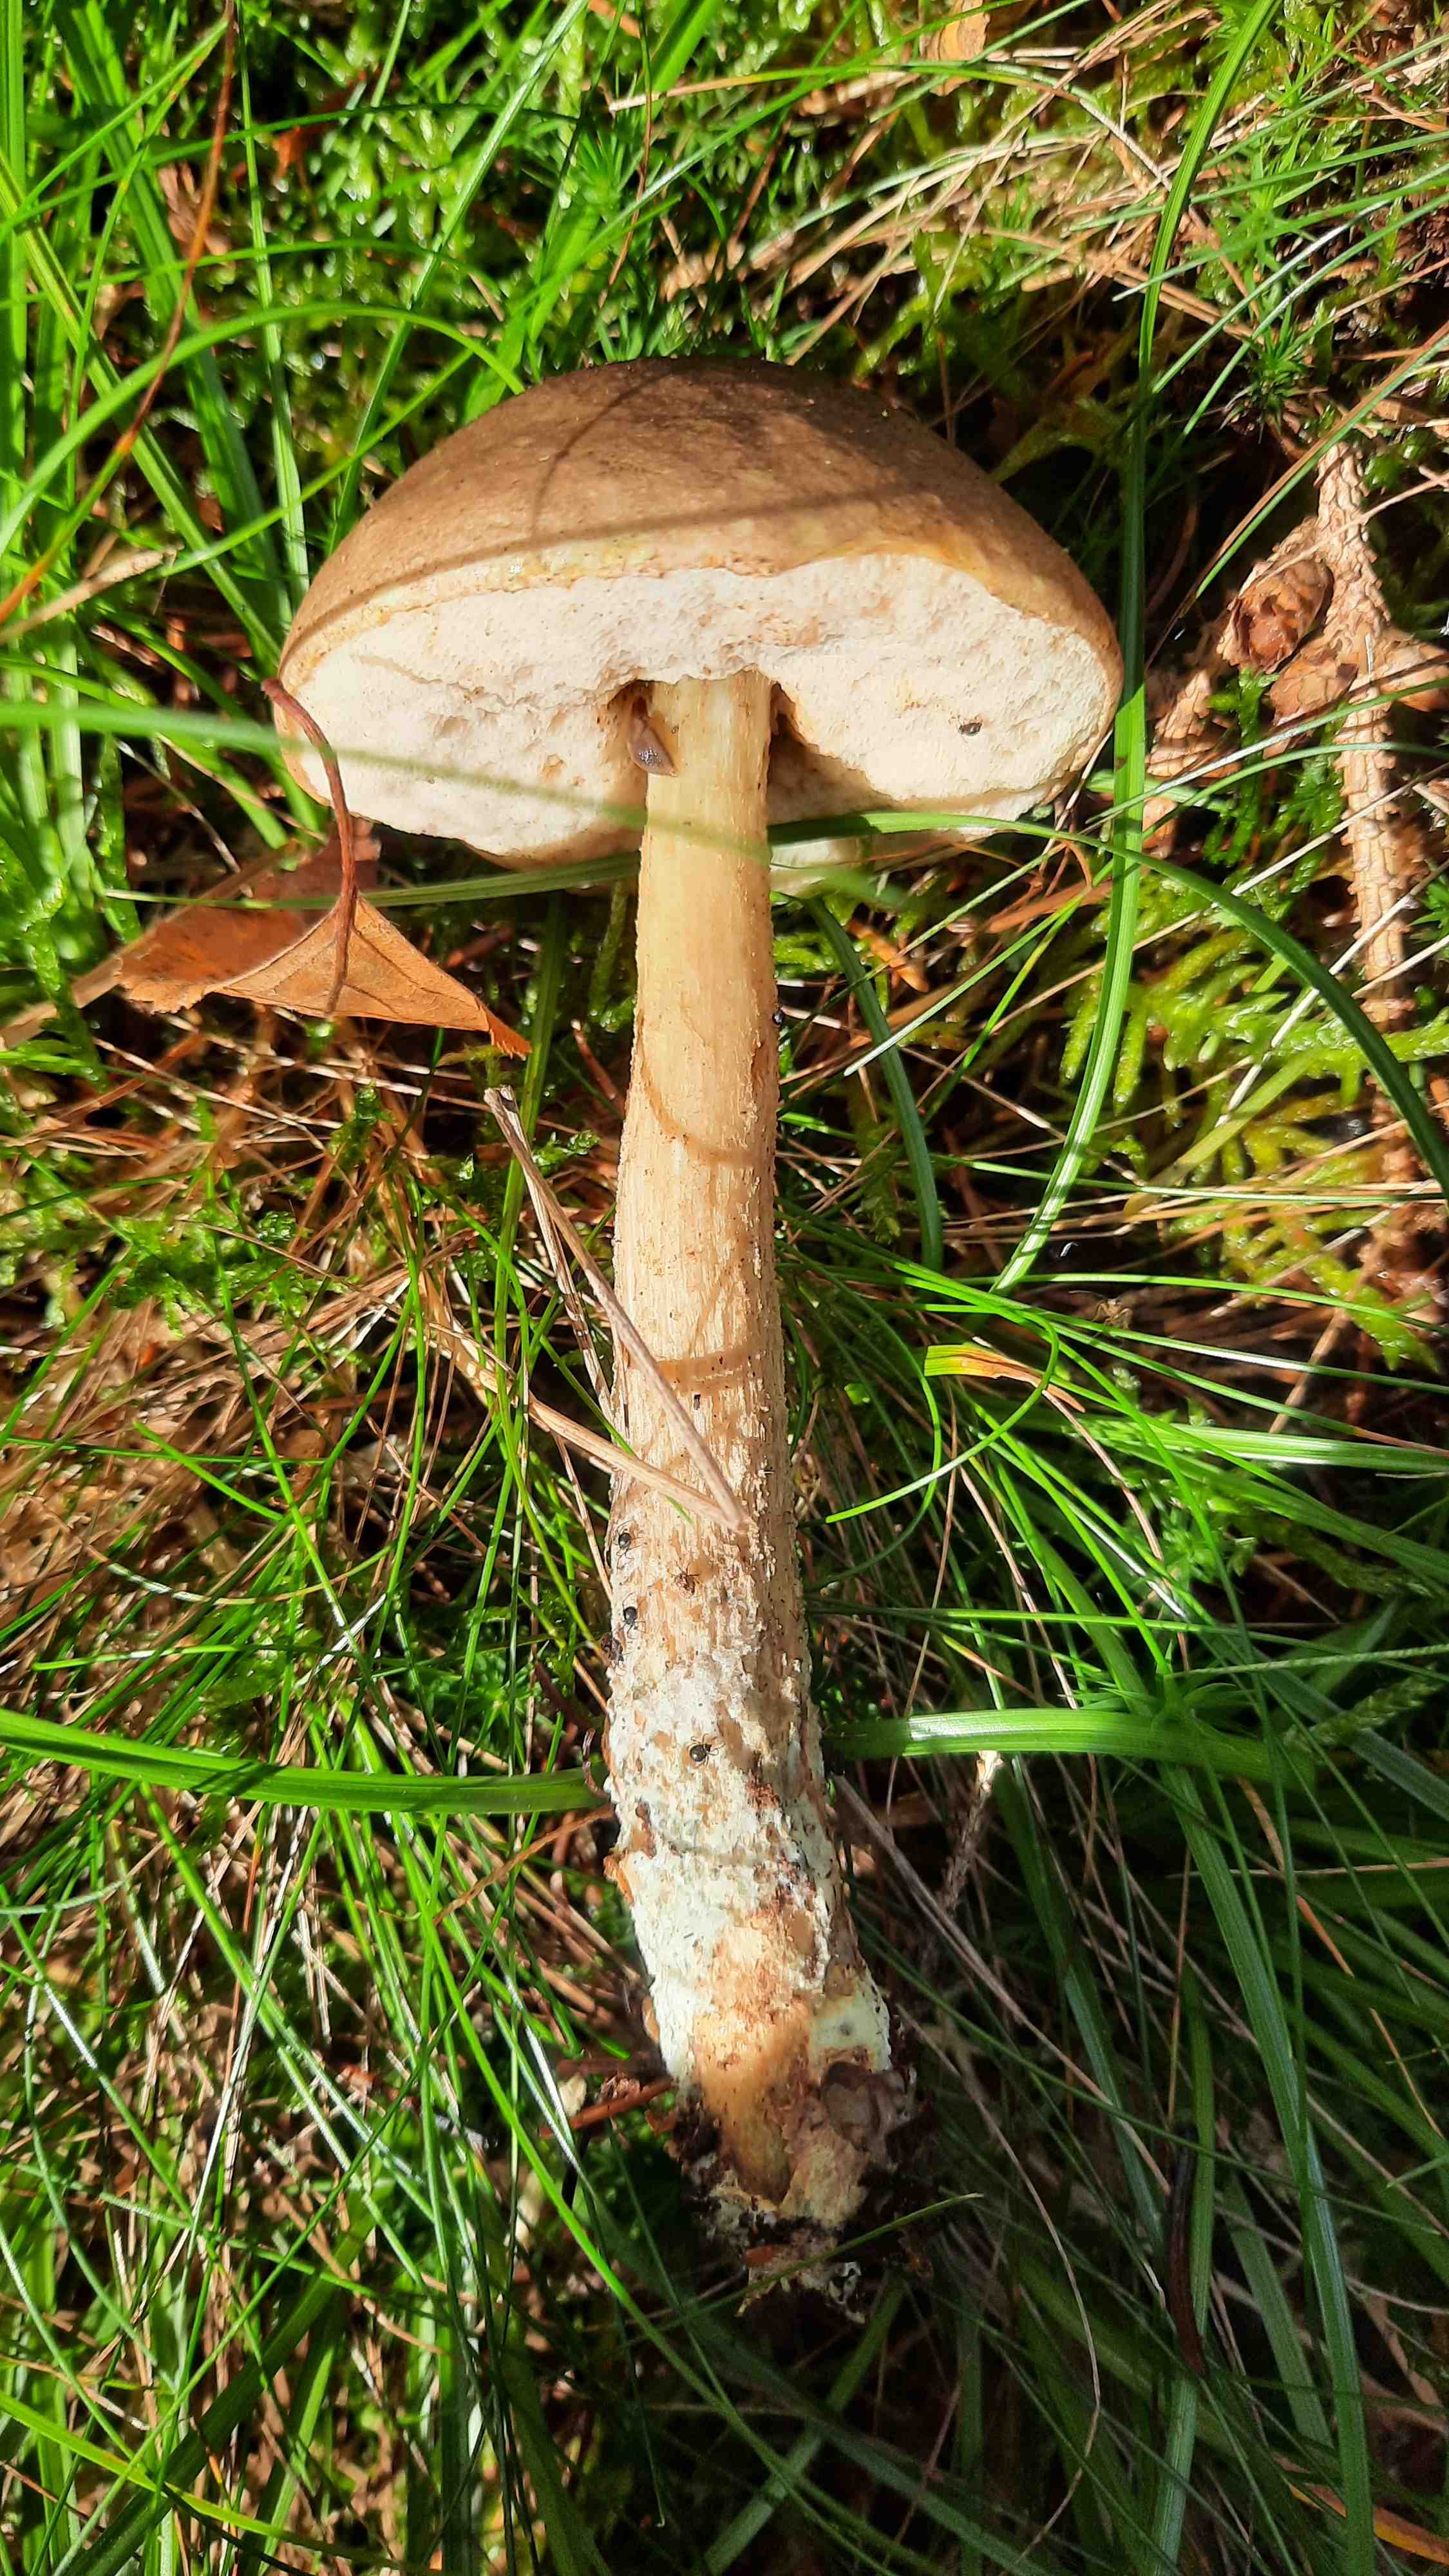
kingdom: Fungi
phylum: Basidiomycota
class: Agaricomycetes
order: Boletales
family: Boletaceae
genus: Leccinum
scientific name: Leccinum scabrum
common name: brun skælrørhat
